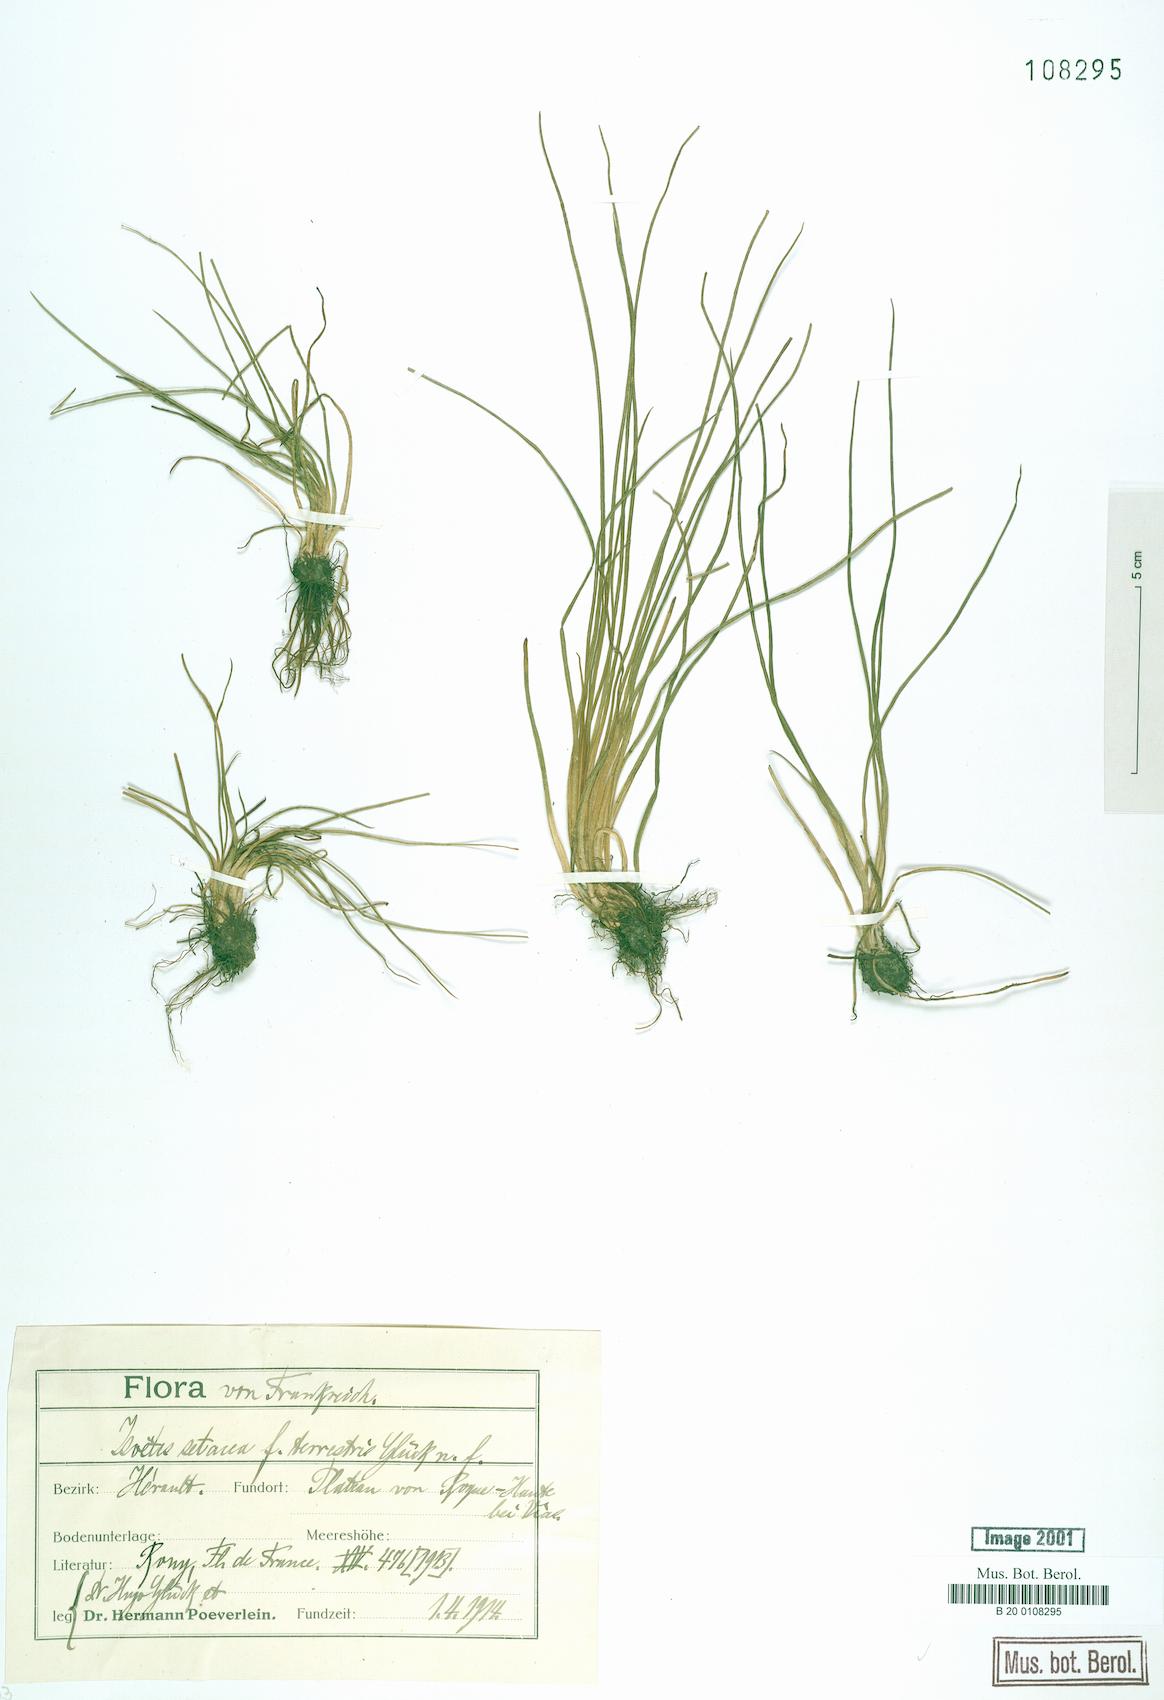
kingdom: Plantae
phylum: Tracheophyta
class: Lycopodiopsida
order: Isoetales
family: Isoetaceae
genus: Isoetes
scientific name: Isoetes
